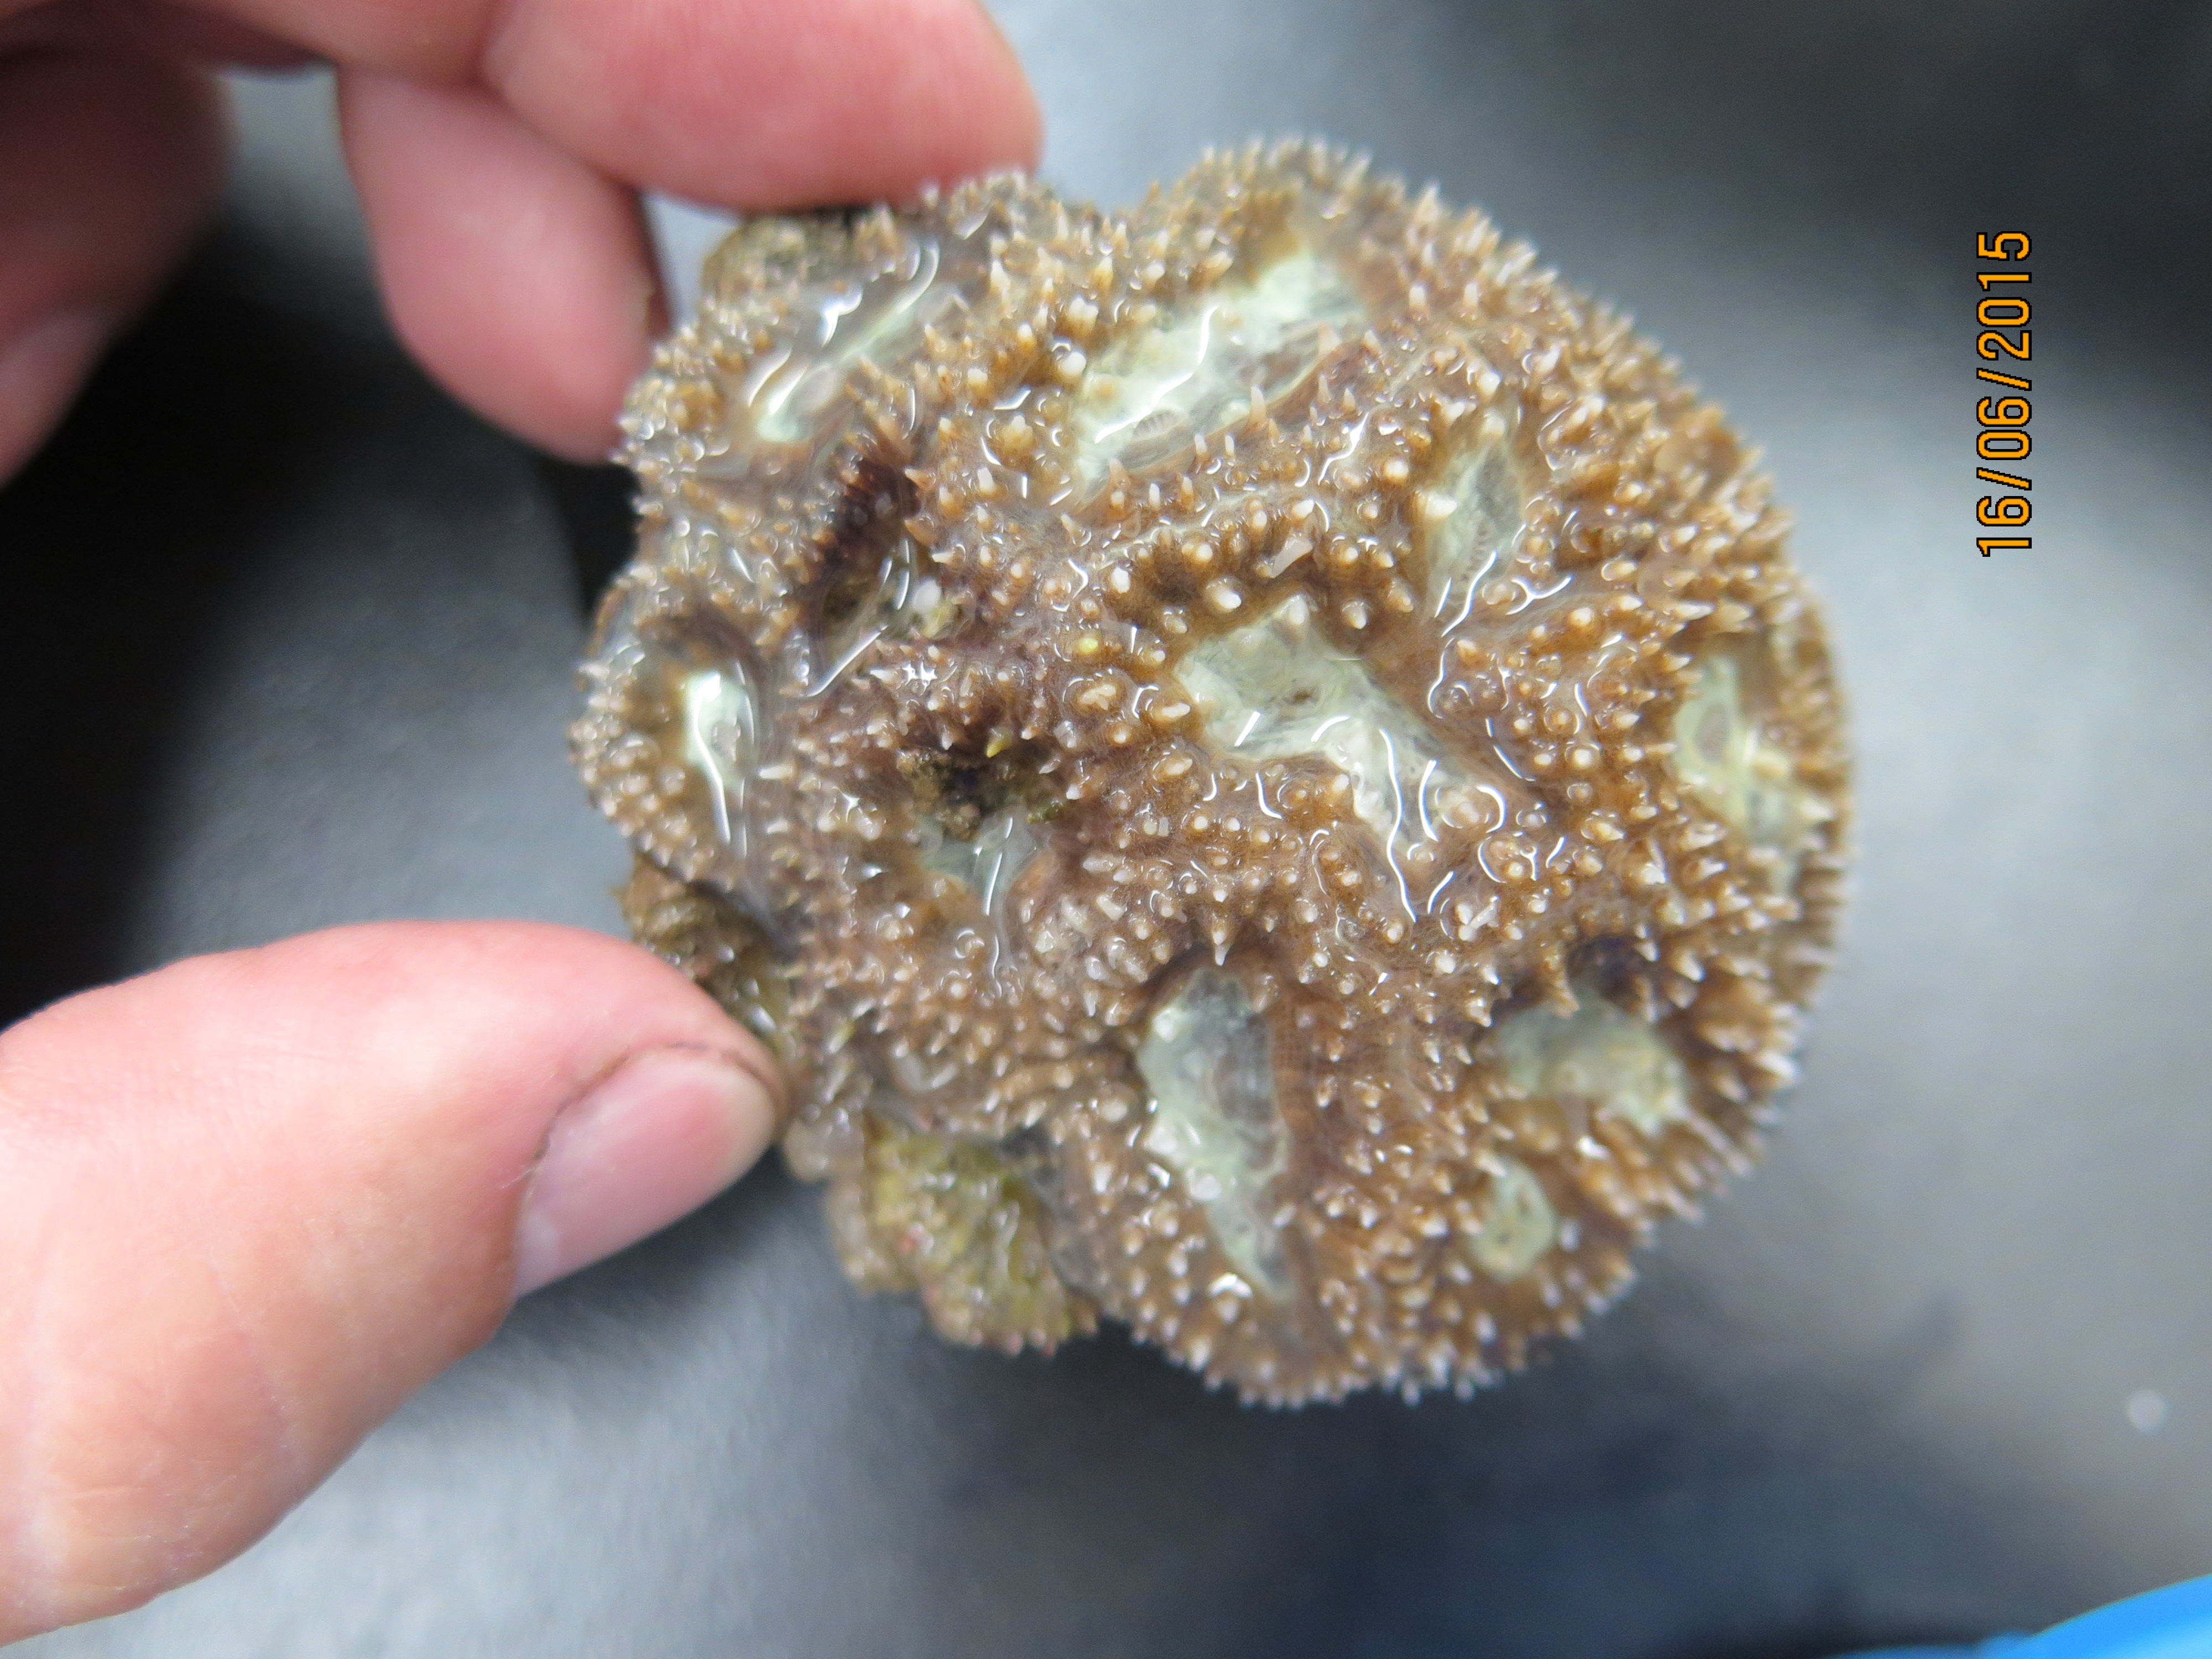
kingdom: Animalia
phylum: Cnidaria
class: Anthozoa
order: Scleractinia
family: Faviidae
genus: Isophyllia
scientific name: Isophyllia rigida
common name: Rough star coral
